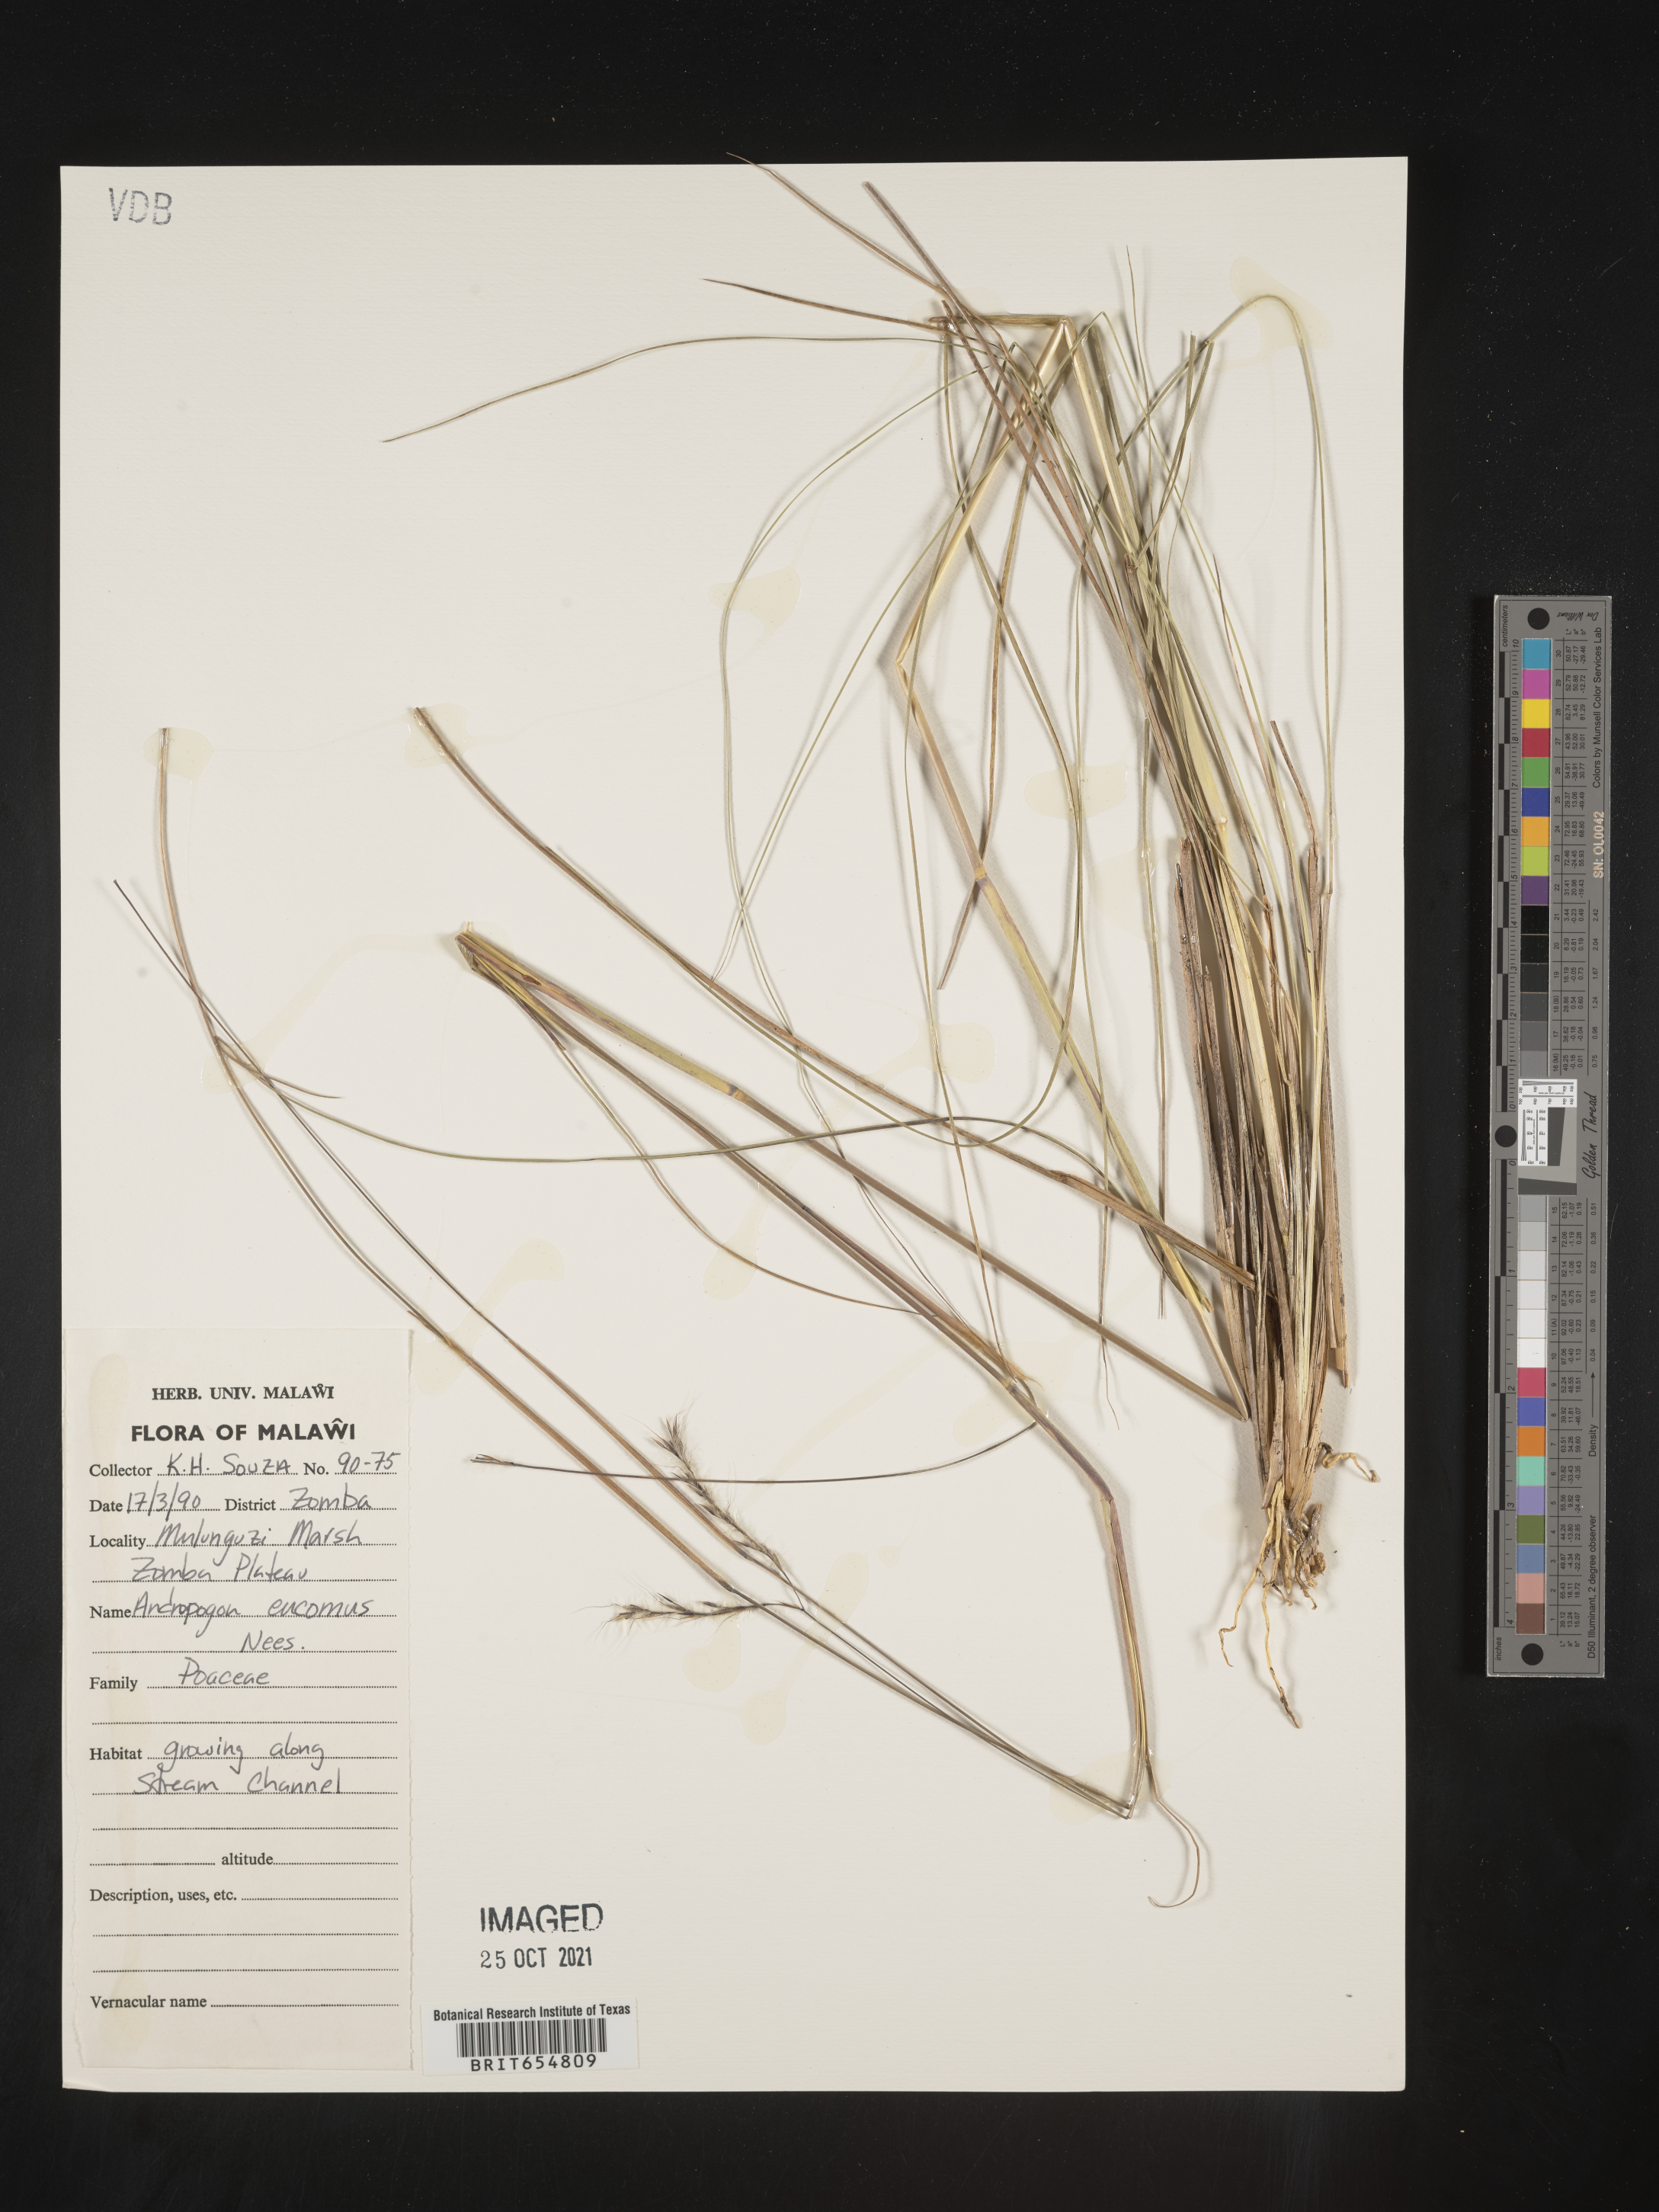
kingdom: Plantae
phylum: Tracheophyta
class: Liliopsida
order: Poales
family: Poaceae
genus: Andropogon
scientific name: Andropogon
